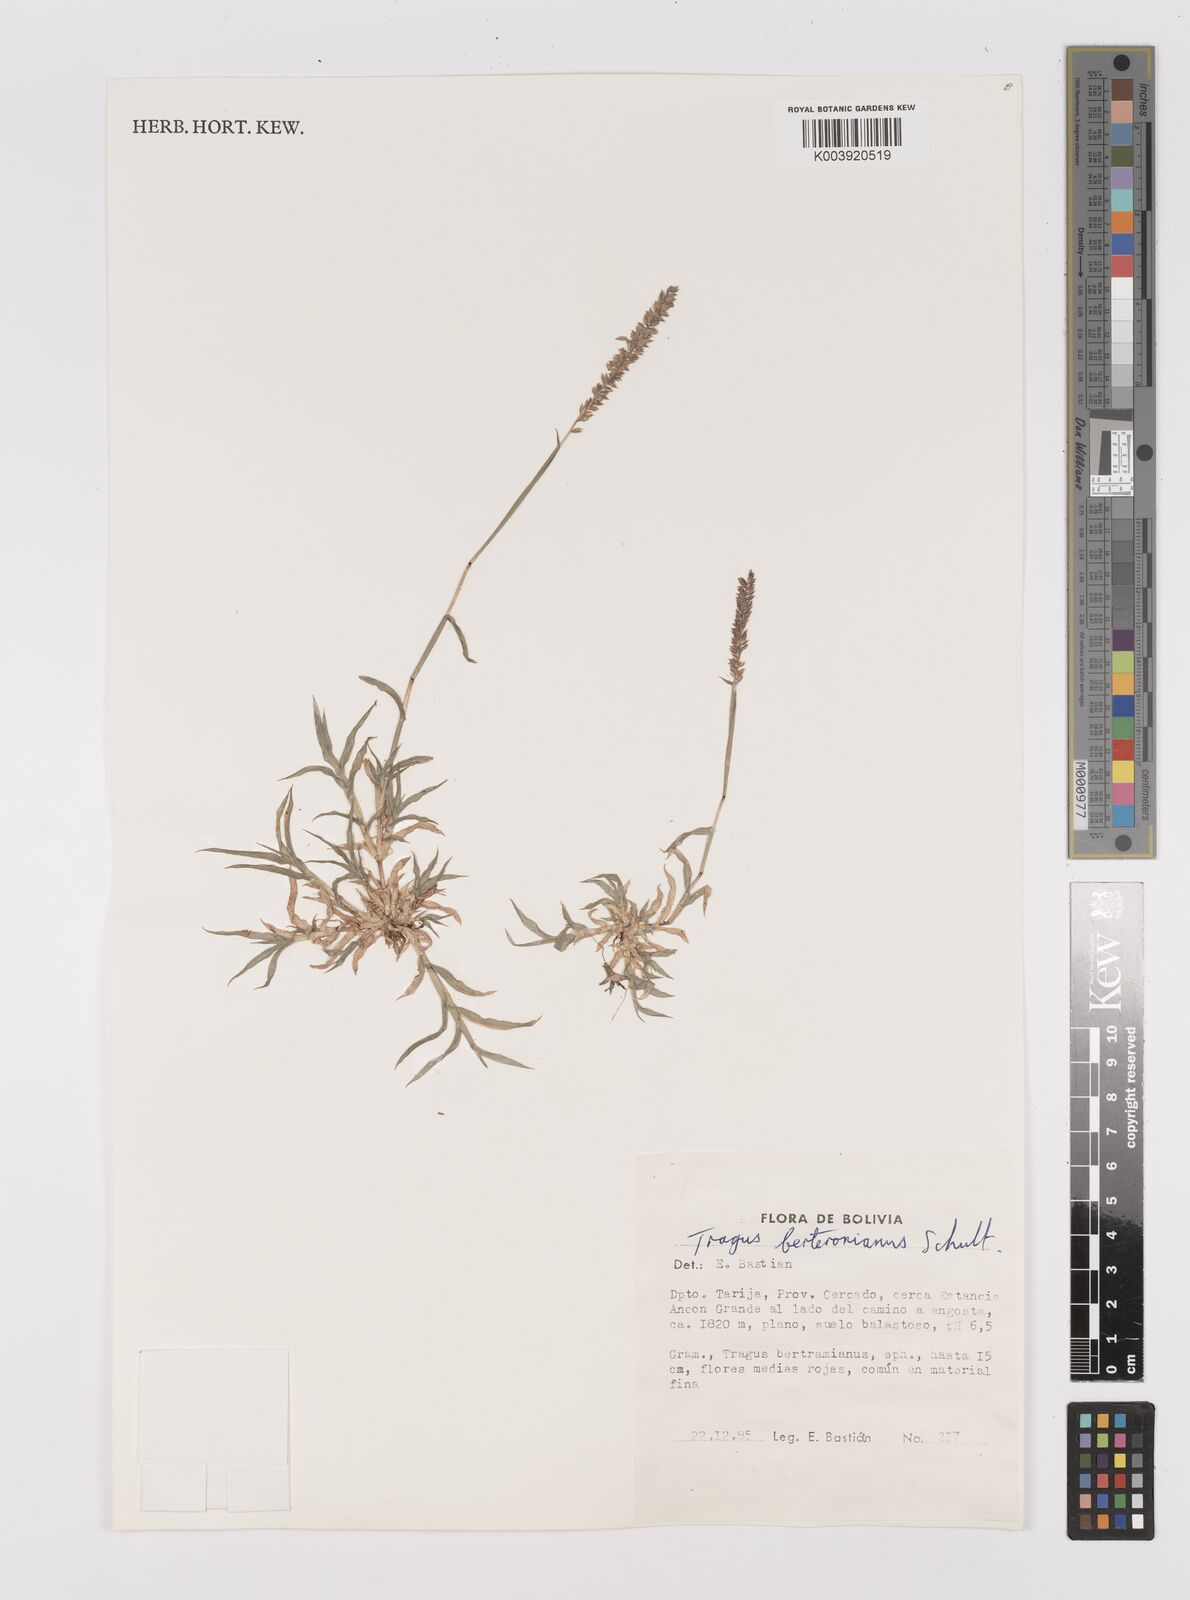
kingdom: Plantae
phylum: Tracheophyta
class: Liliopsida
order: Poales
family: Poaceae
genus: Tragus
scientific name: Tragus berteronianus
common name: African bur-grass
